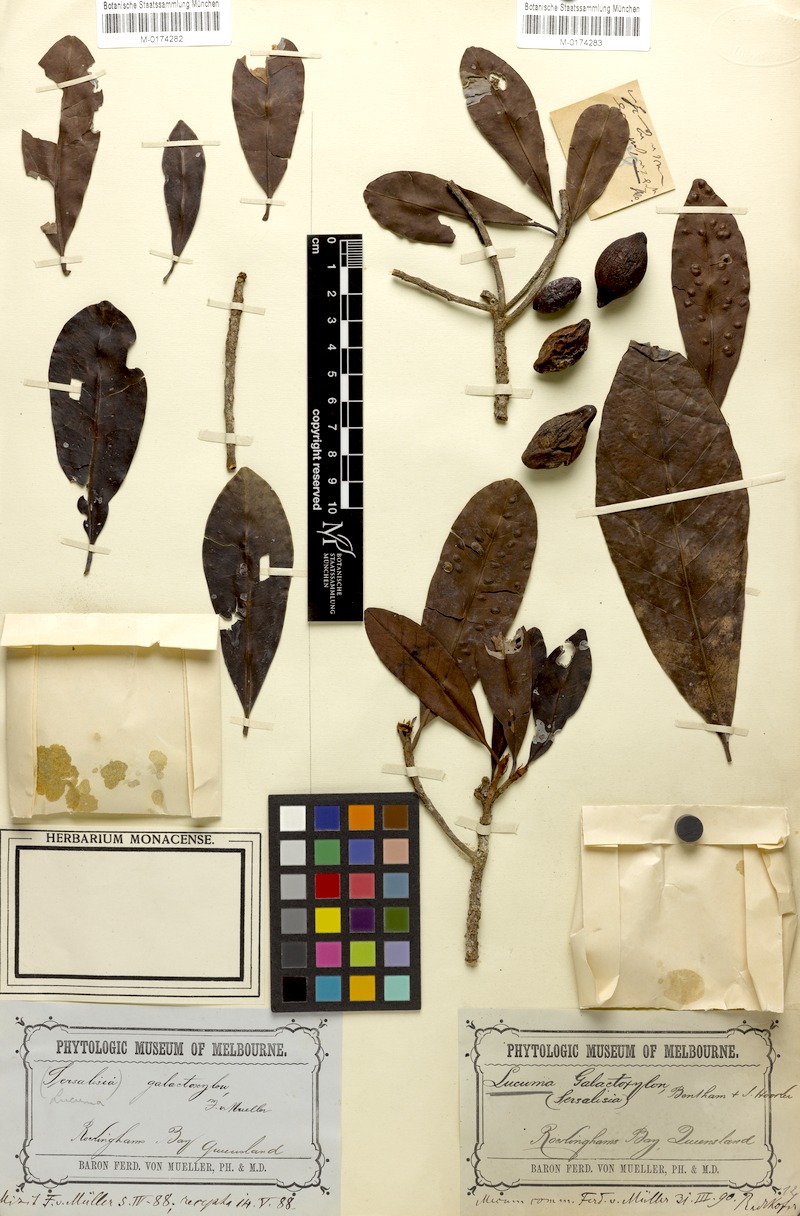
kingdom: Plantae
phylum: Tracheophyta
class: Magnoliopsida
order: Ericales
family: Sapotaceae
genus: Palaquium
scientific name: Palaquium galactoxylum
